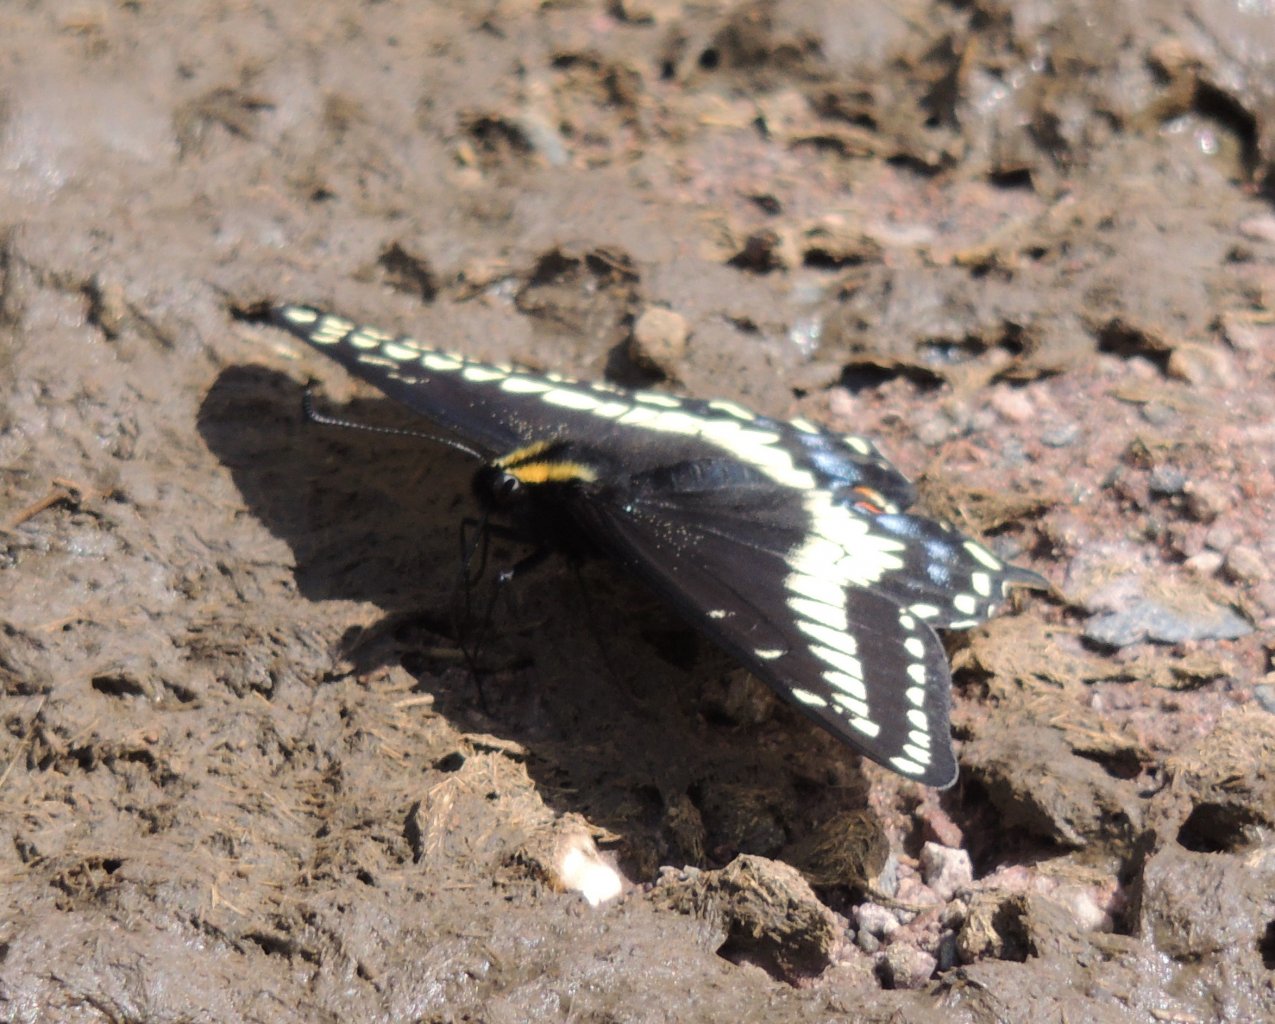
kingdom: Animalia
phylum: Arthropoda
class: Insecta
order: Lepidoptera
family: Papilionidae
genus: Papilio
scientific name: Papilio indra
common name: Indra Swallowtail
